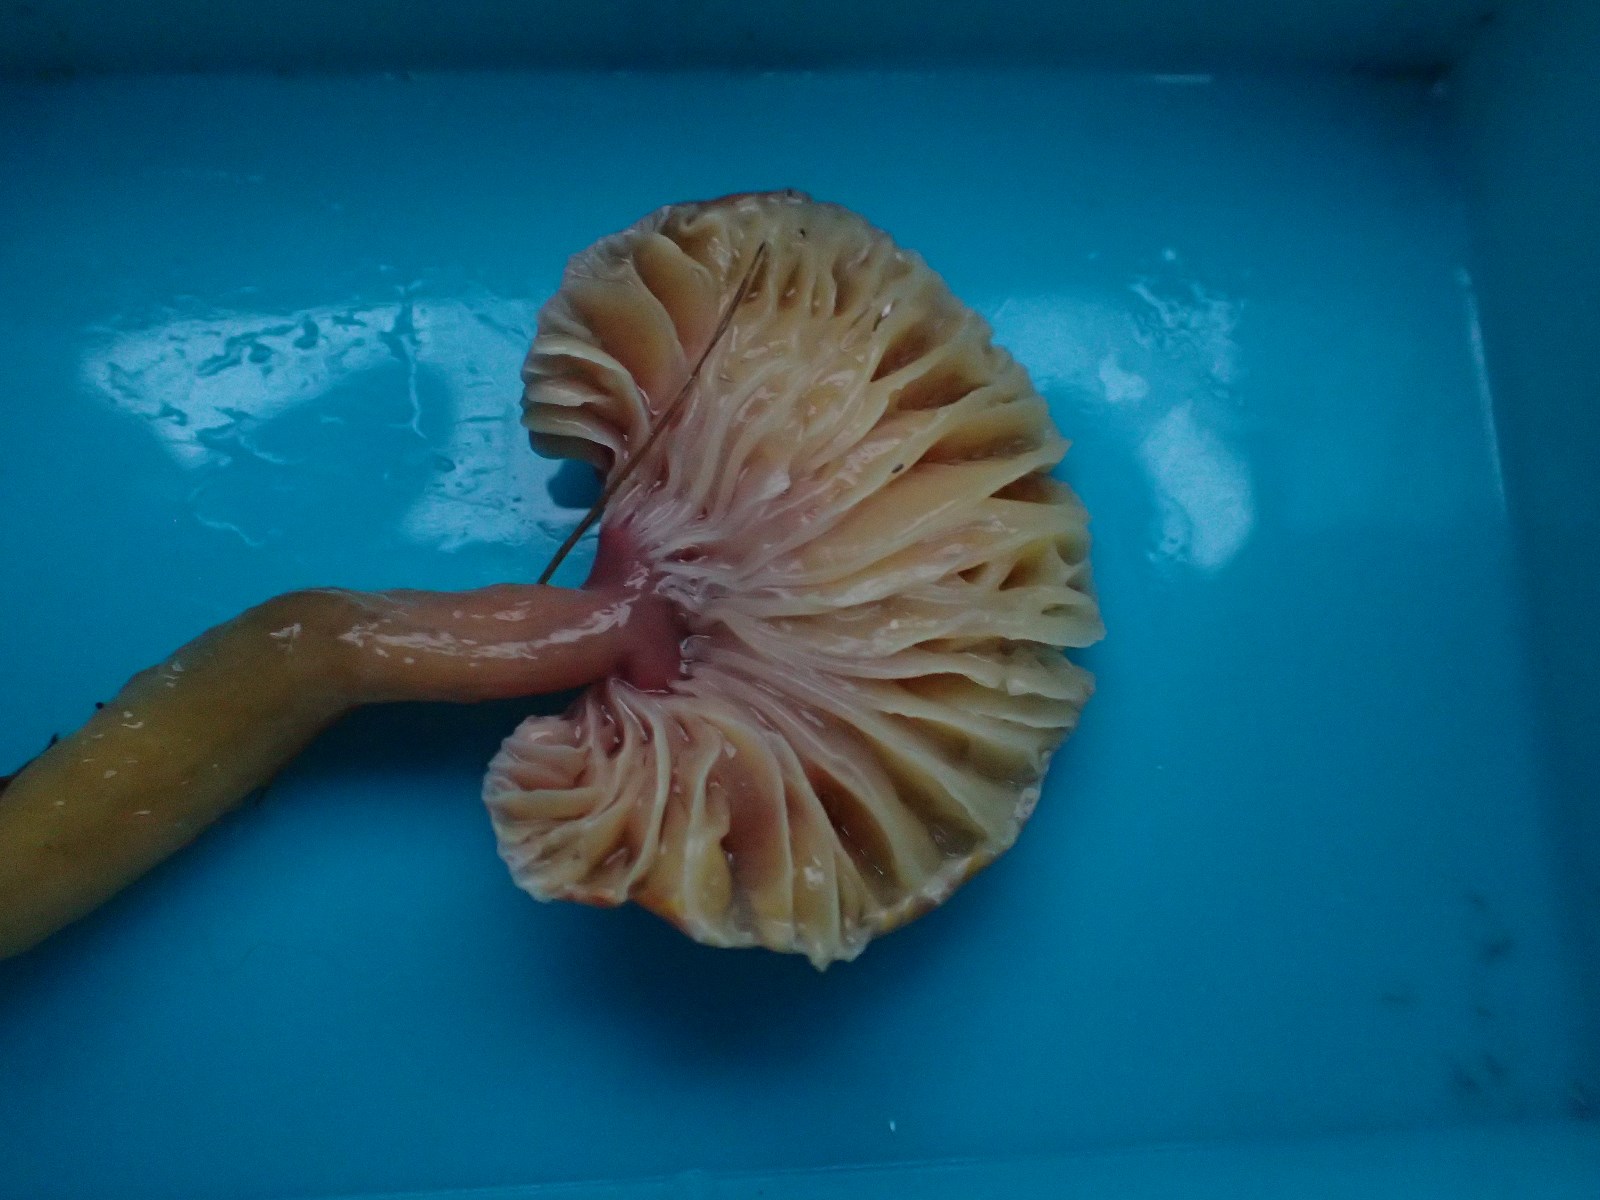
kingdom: Fungi
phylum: Basidiomycota
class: Agaricomycetes
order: Agaricales
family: Hygrophoraceae
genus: Gliophorus
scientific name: Gliophorus laetus
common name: brusk-vokshat
